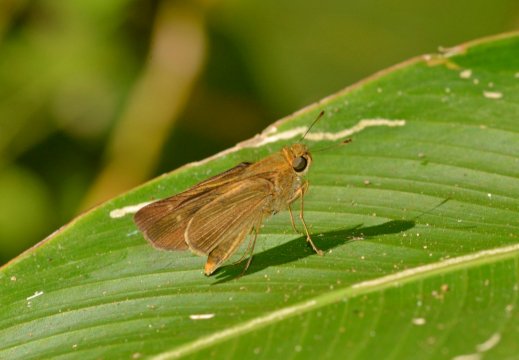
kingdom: Animalia
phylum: Arthropoda
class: Insecta
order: Lepidoptera
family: Hesperiidae
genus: Panoquina
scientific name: Panoquina ocola
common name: Ocola Skipper
